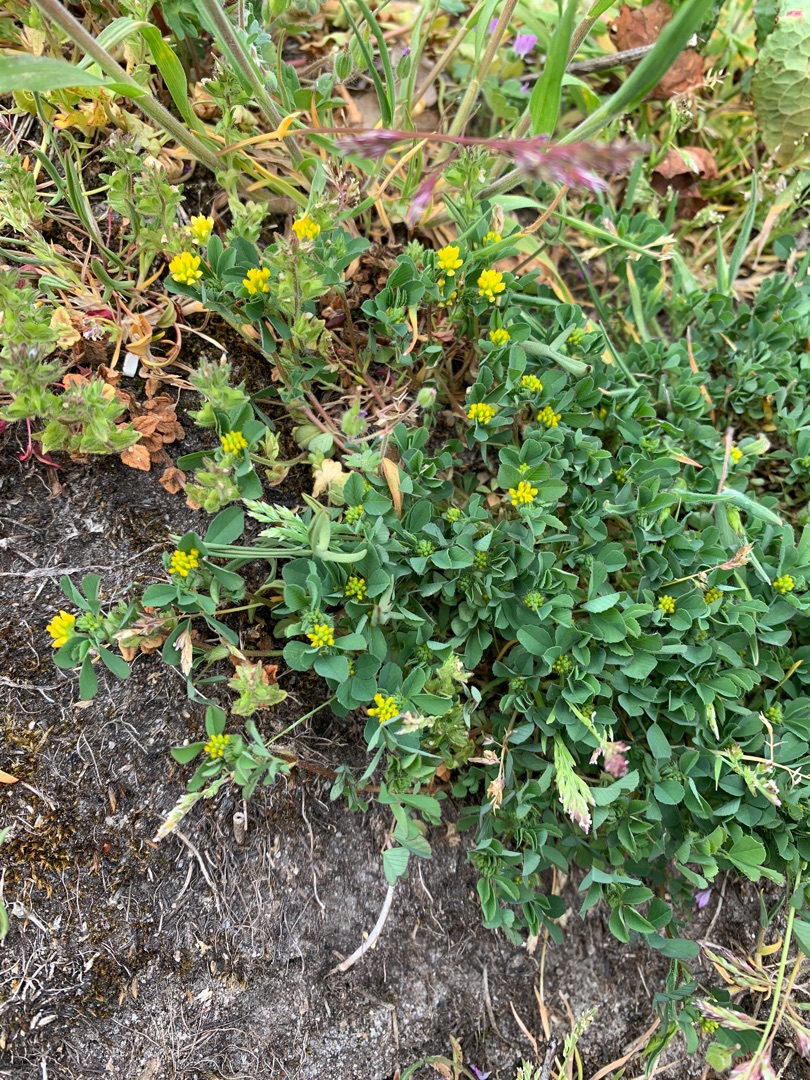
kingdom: Plantae
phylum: Tracheophyta
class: Magnoliopsida
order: Fabales
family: Fabaceae
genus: Trifolium
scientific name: Trifolium dubium
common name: Fin kløver
